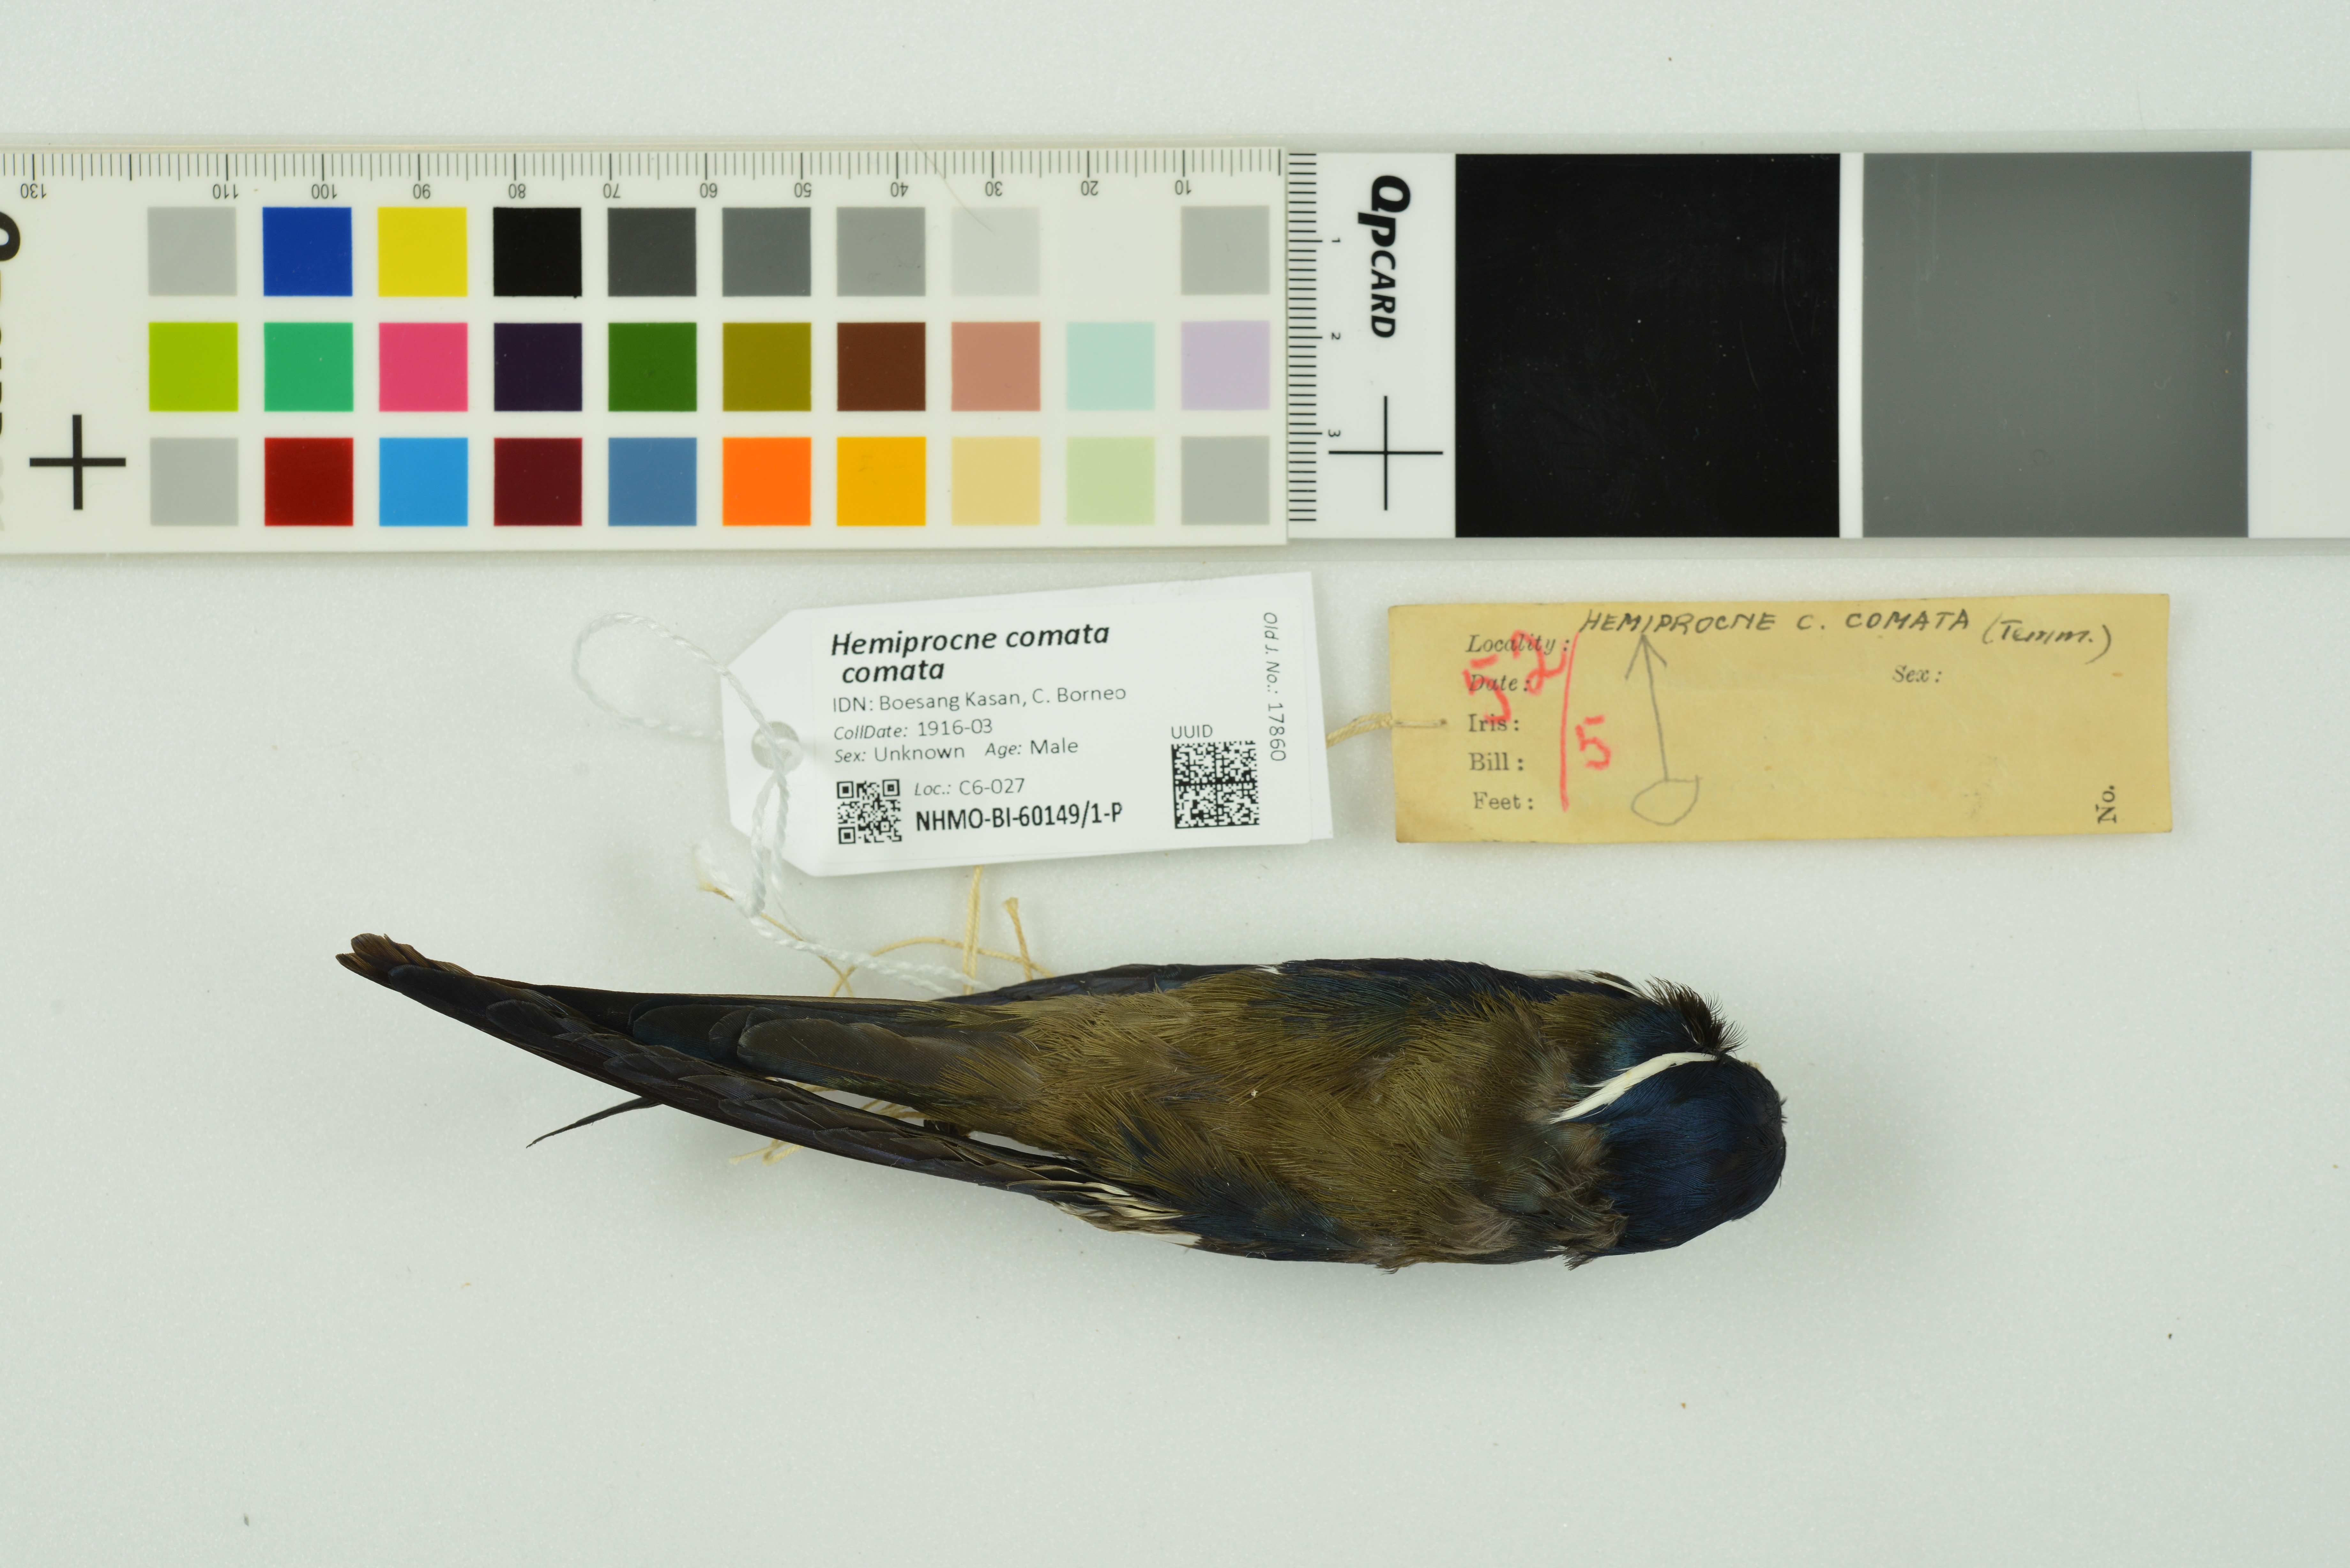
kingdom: Animalia
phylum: Chordata
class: Aves
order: Apodiformes
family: Hemiprocnidae
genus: Hemiprocne
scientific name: Hemiprocne comata
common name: Whiskered treeswift
